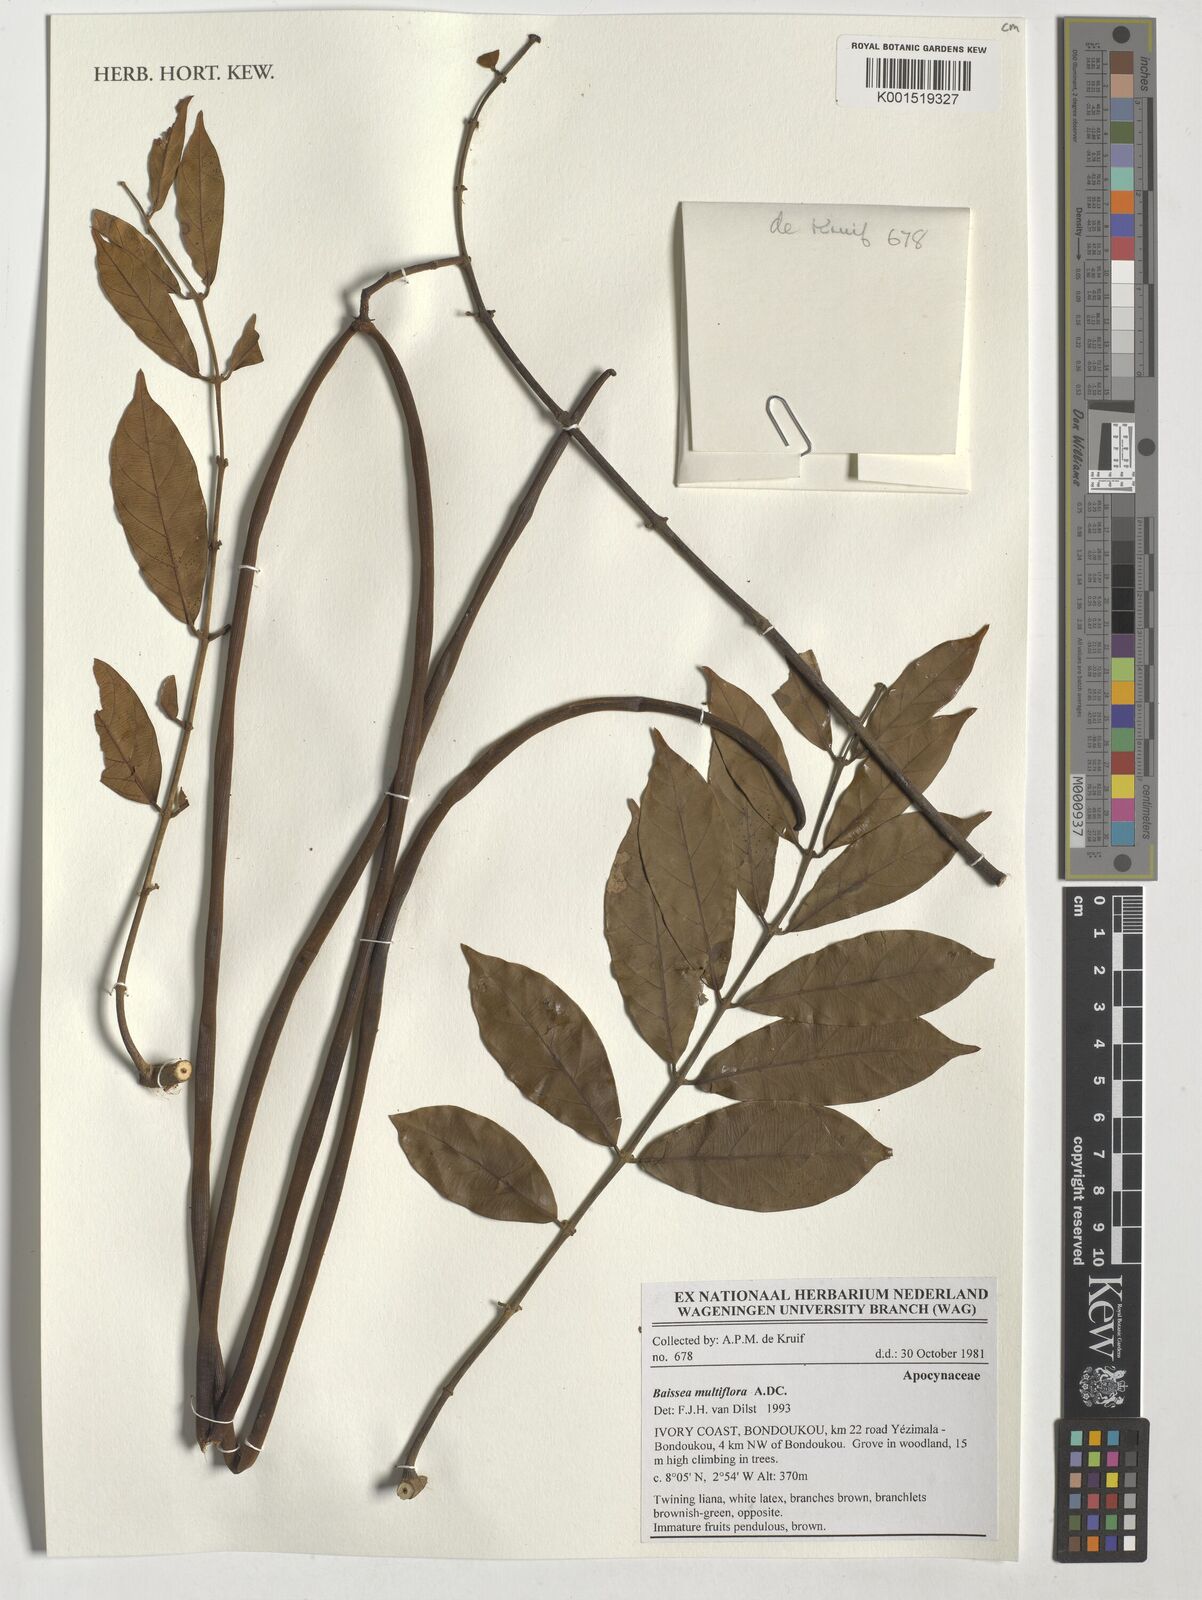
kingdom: Plantae
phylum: Tracheophyta
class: Magnoliopsida
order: Gentianales
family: Apocynaceae
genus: Baissea
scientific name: Baissea multiflora
